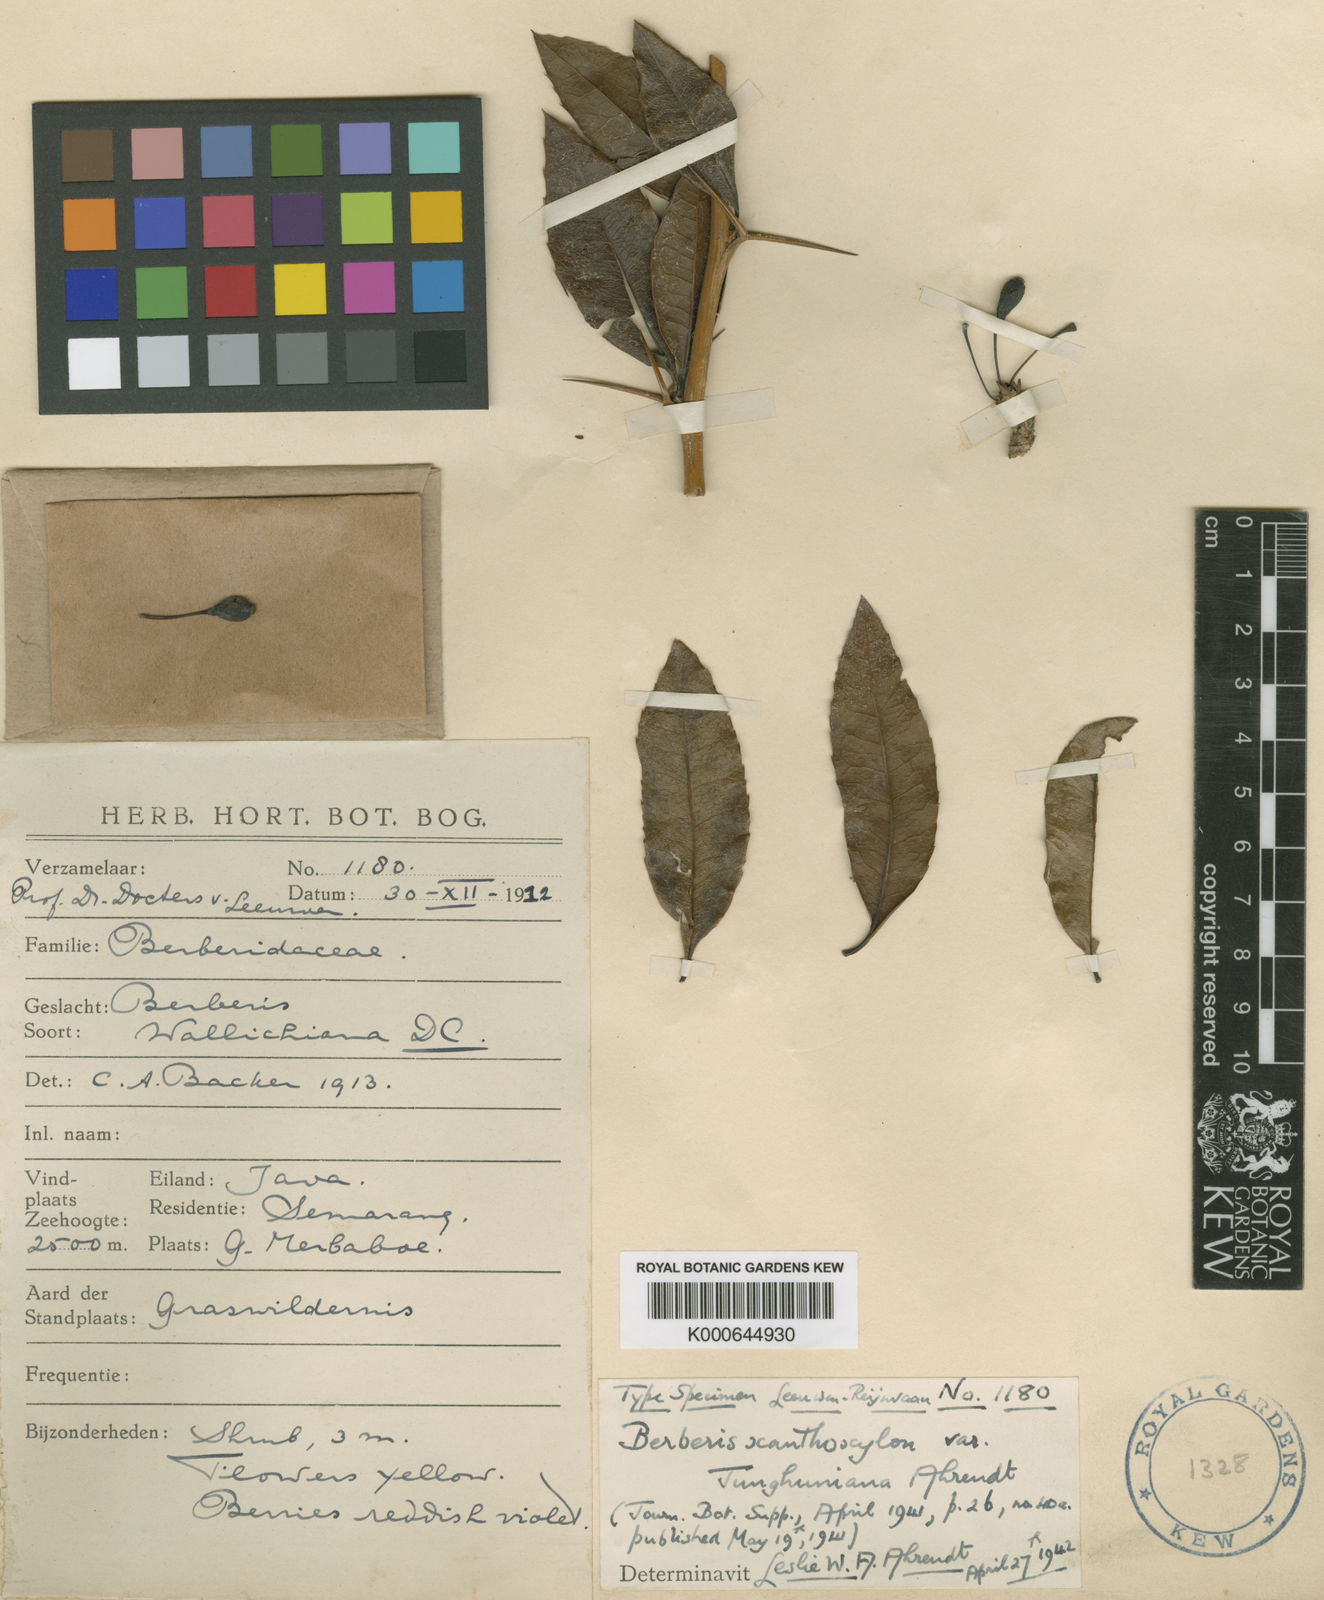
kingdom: Plantae
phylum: Tracheophyta
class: Magnoliopsida
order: Ranunculales
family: Berberidaceae
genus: Berberis
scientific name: Berberis xanthoxylon
